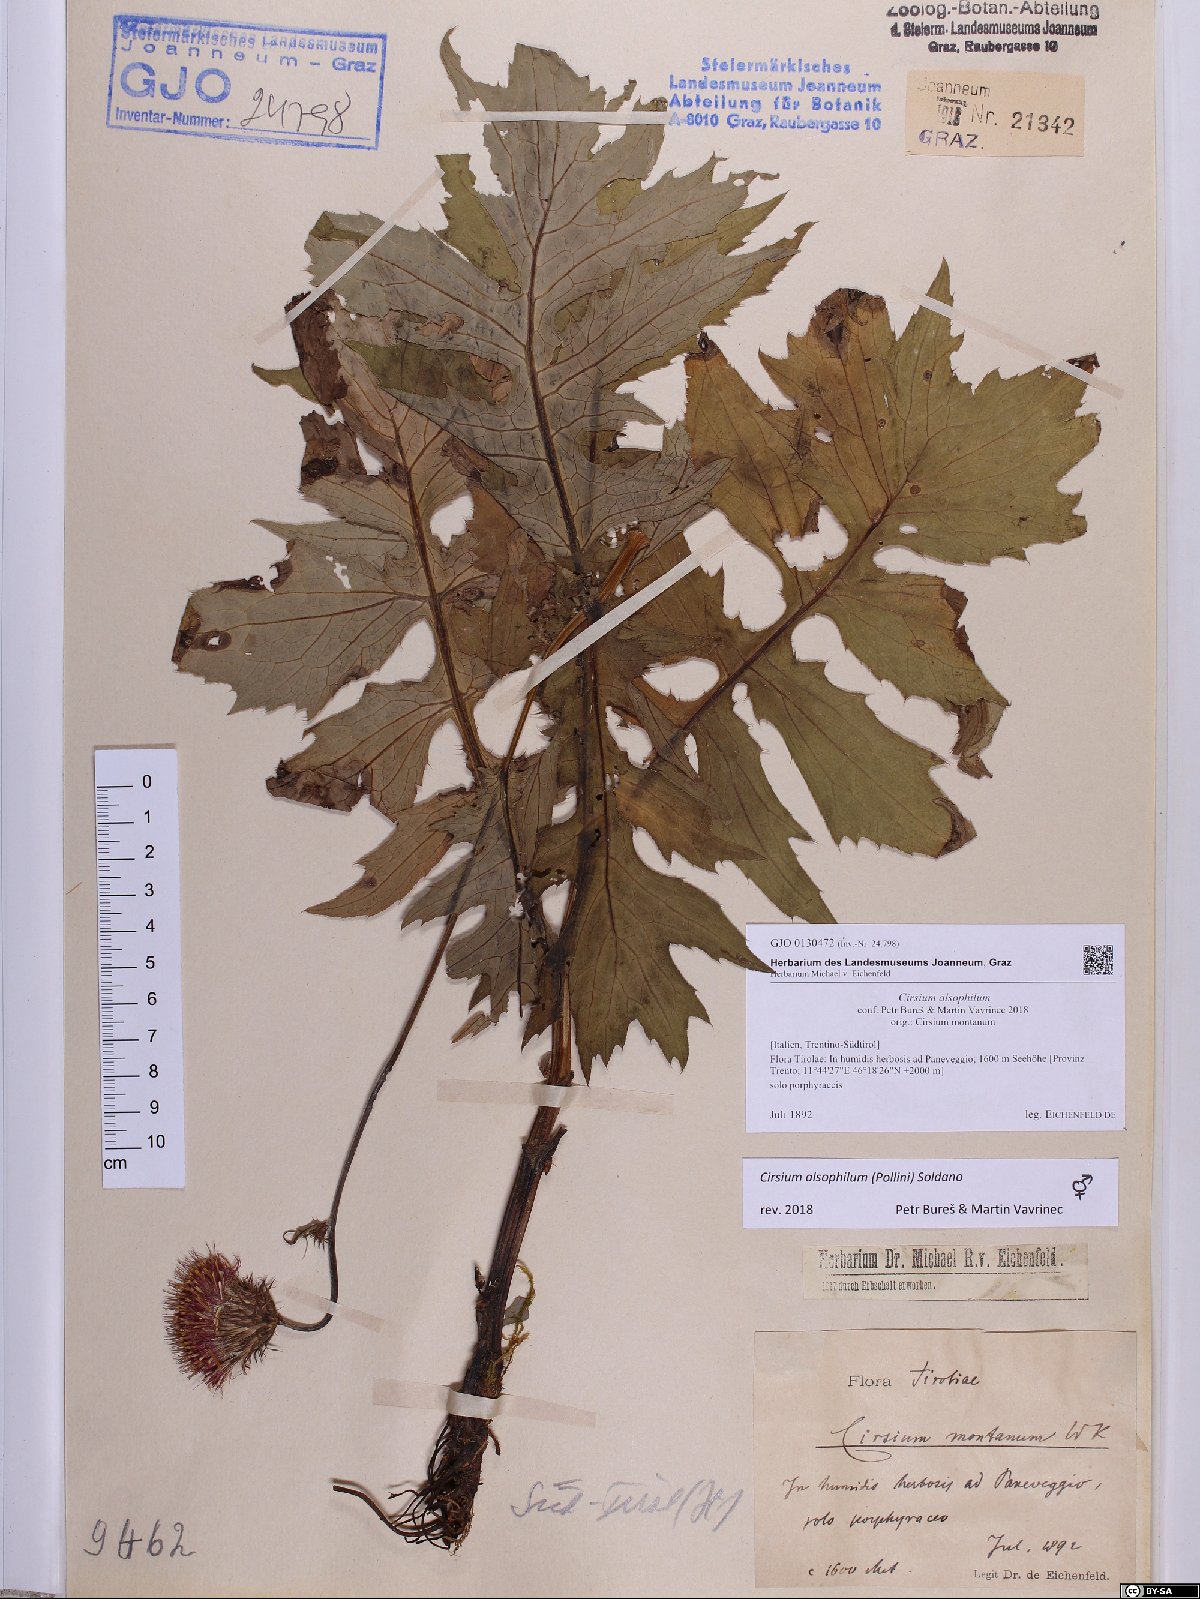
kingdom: Plantae
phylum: Tracheophyta
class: Magnoliopsida
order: Asterales
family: Asteraceae
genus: Cirsium
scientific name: Cirsium alsophilum
